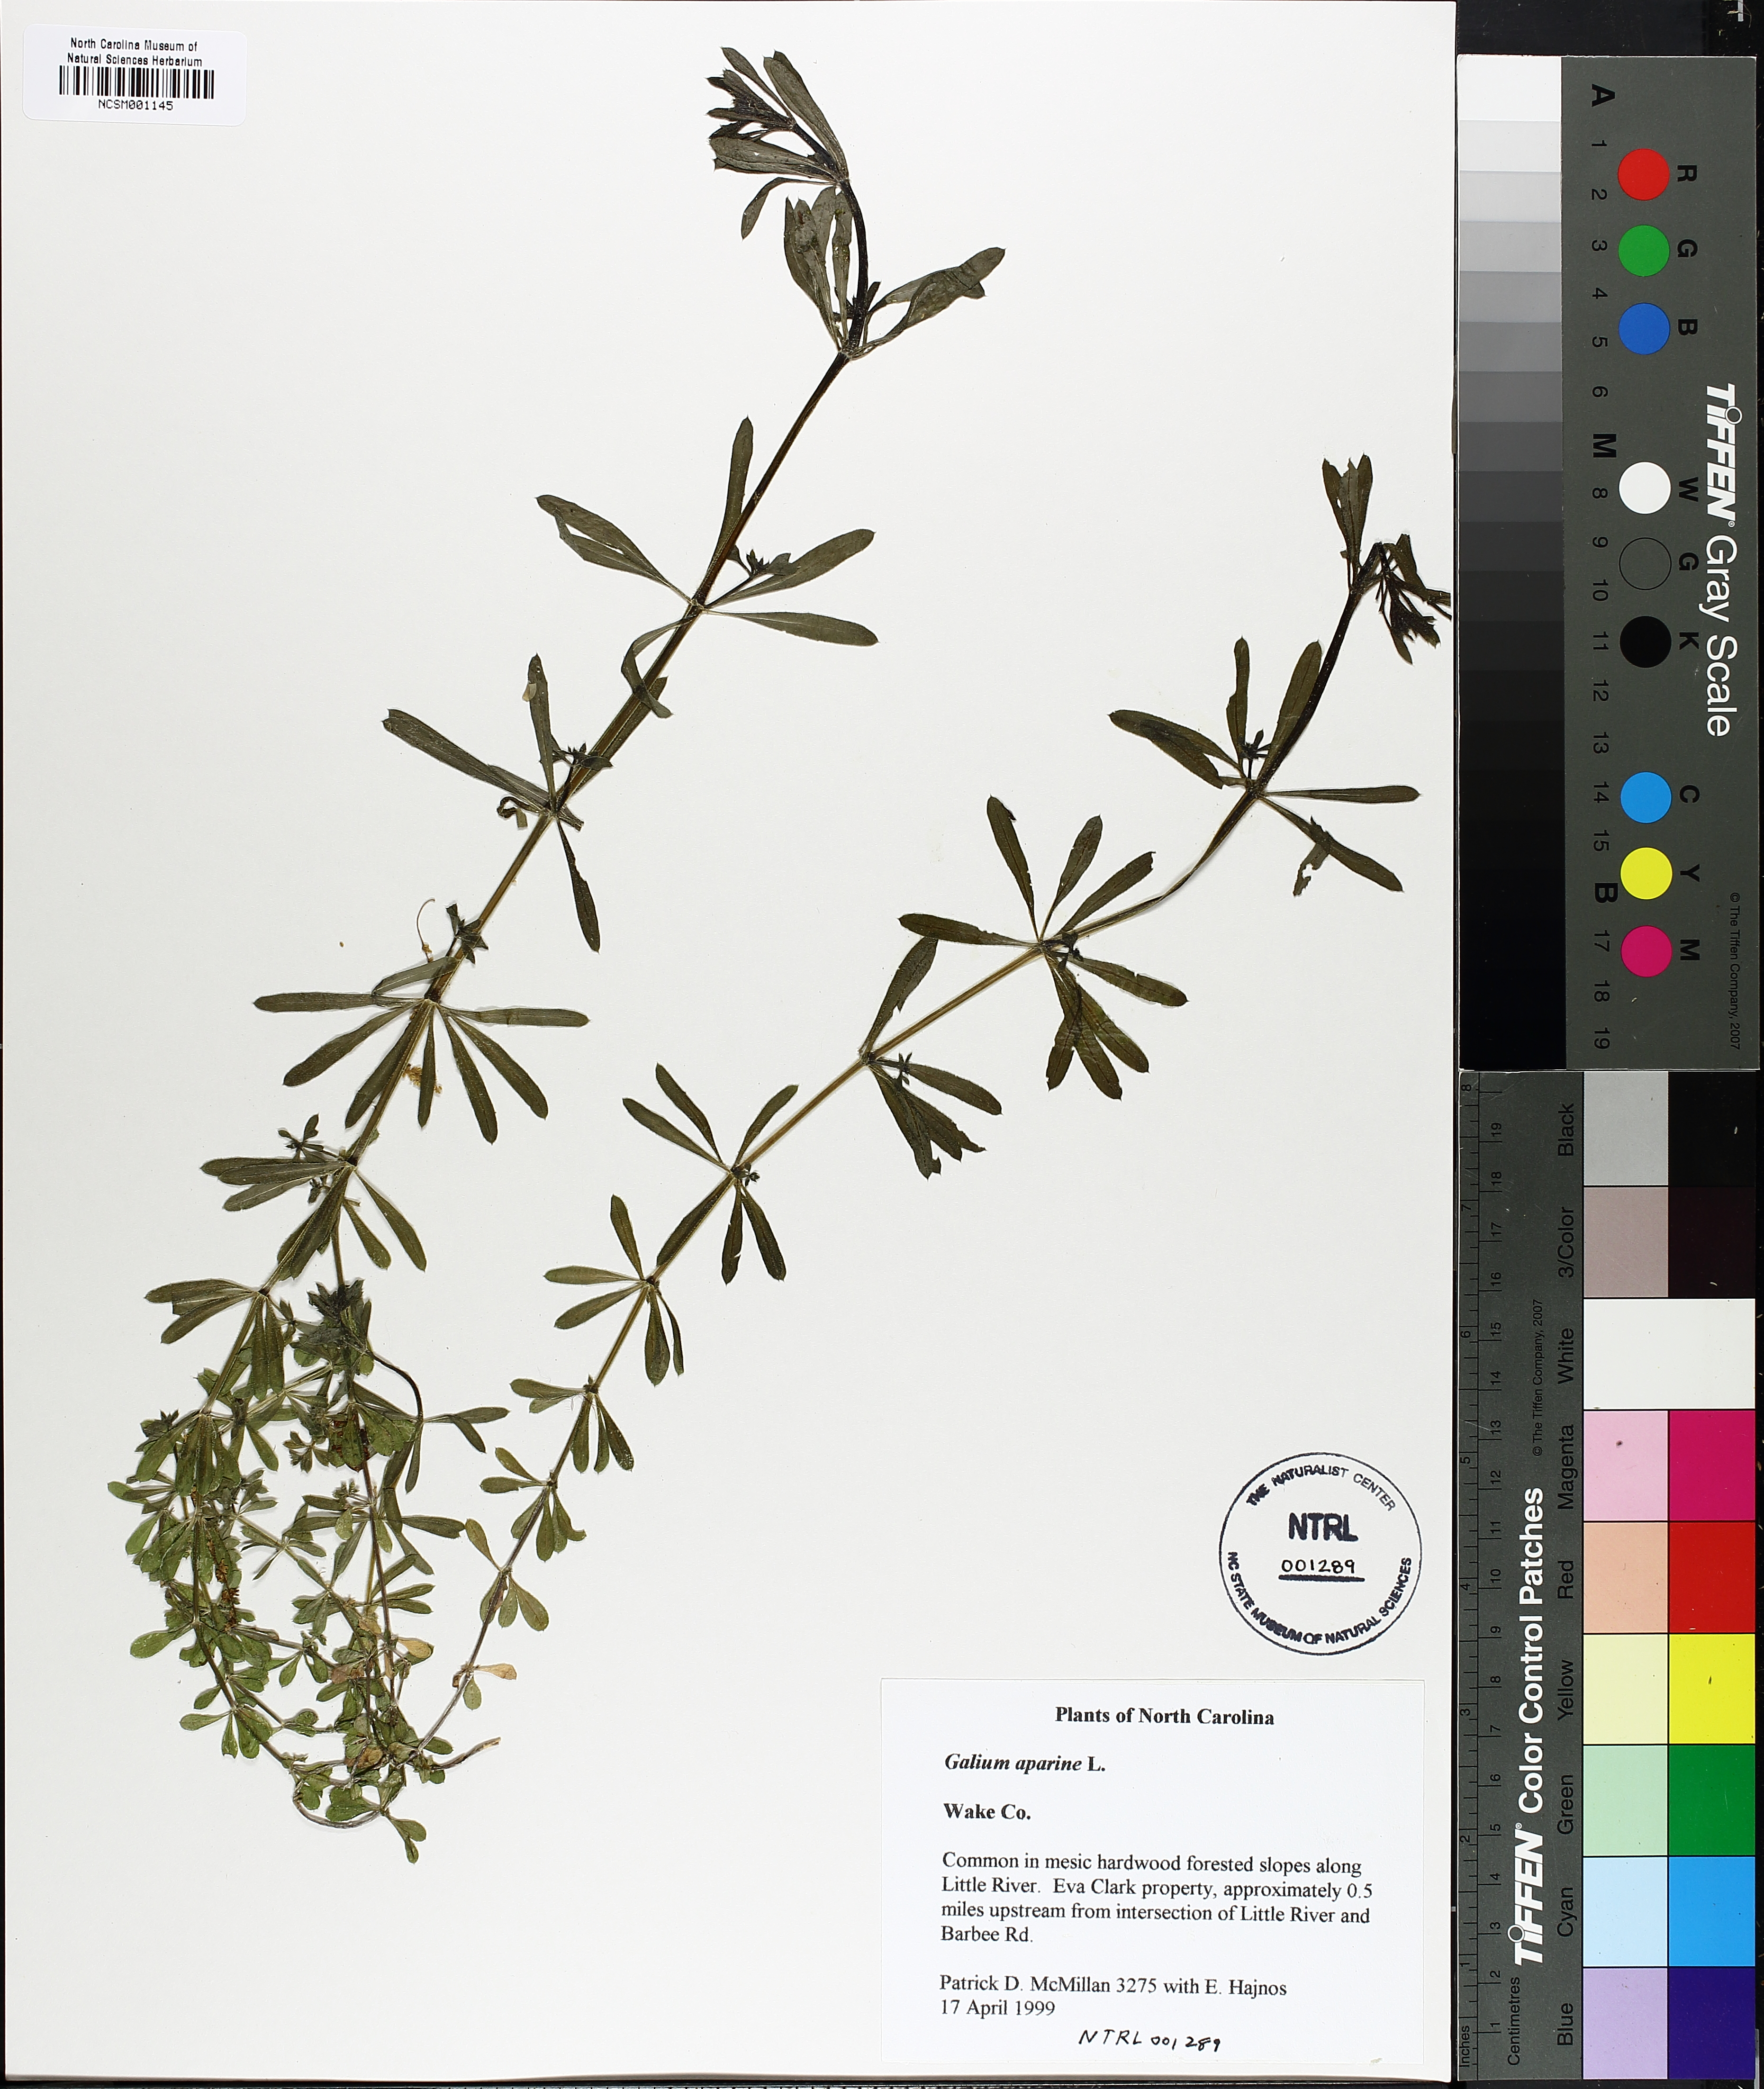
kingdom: Plantae
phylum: Tracheophyta
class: Magnoliopsida
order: Gentianales
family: Rubiaceae
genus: Galium
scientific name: Galium aparine
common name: Cleavers
